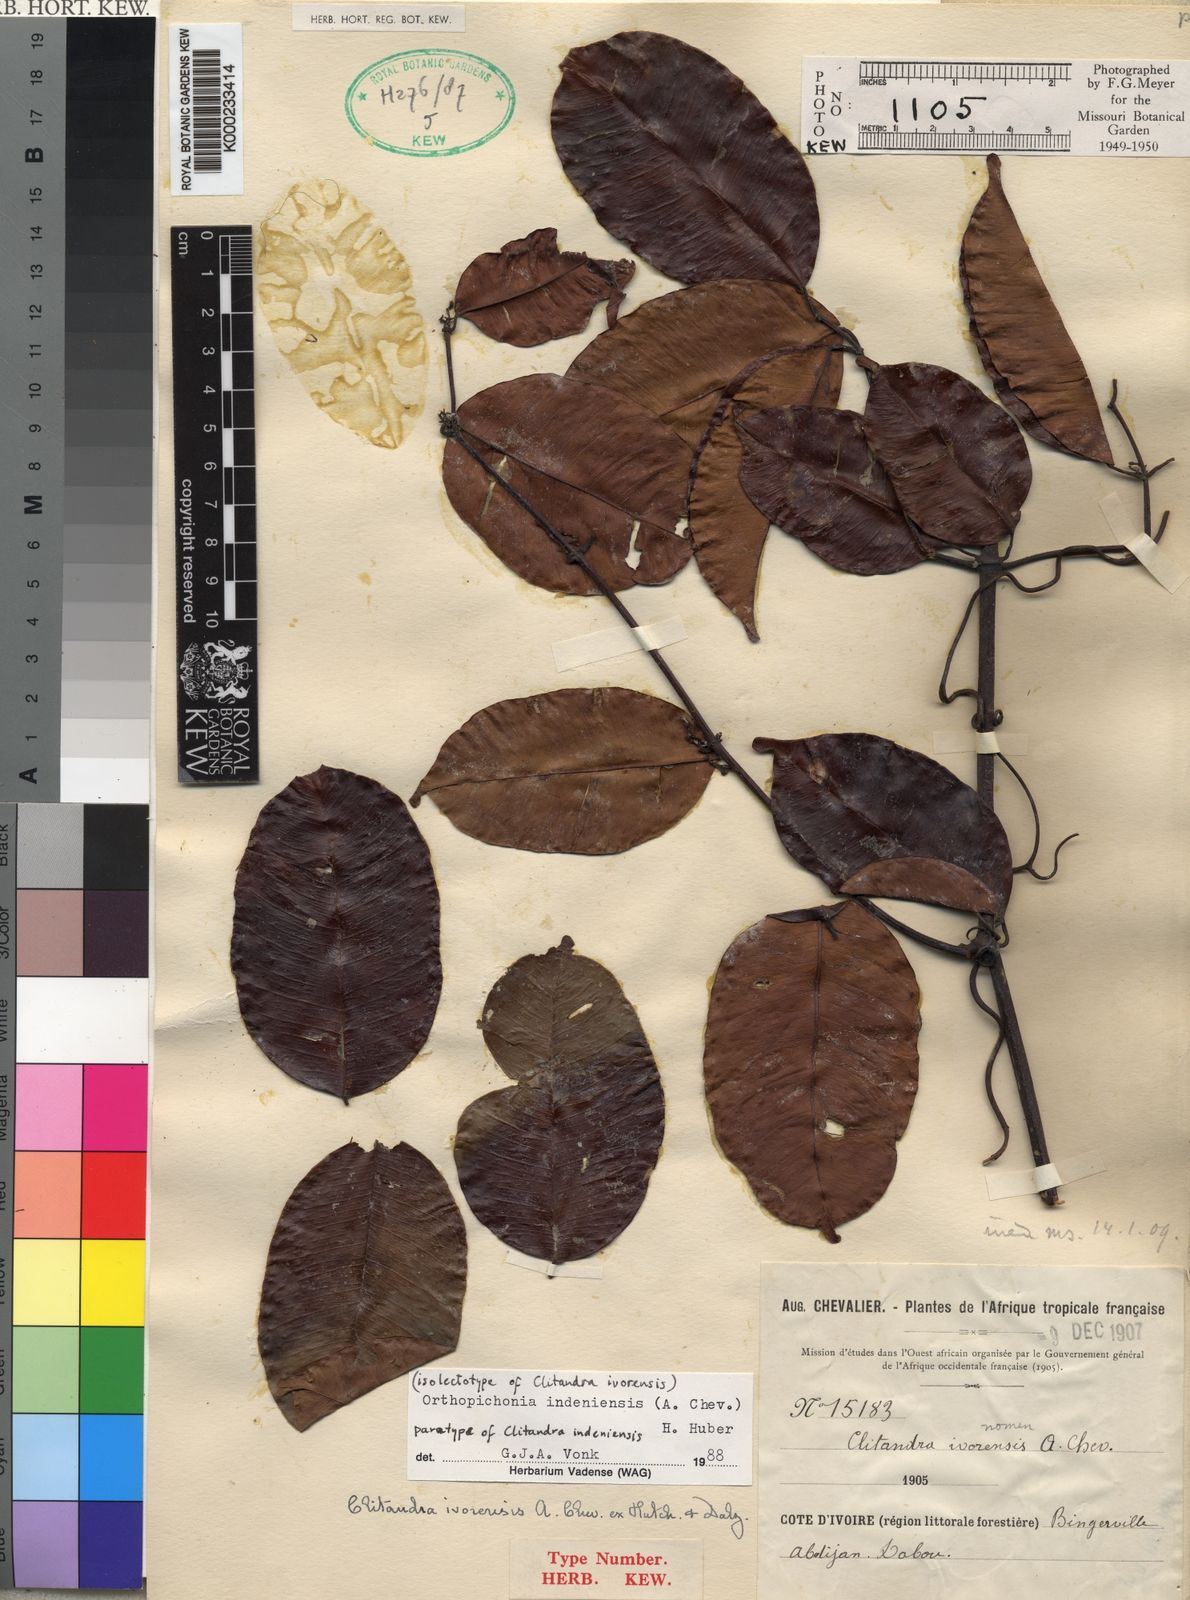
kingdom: Plantae
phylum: Tracheophyta
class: Magnoliopsida
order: Gentianales
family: Apocynaceae
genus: Orthopichonia
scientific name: Orthopichonia indeniensis
